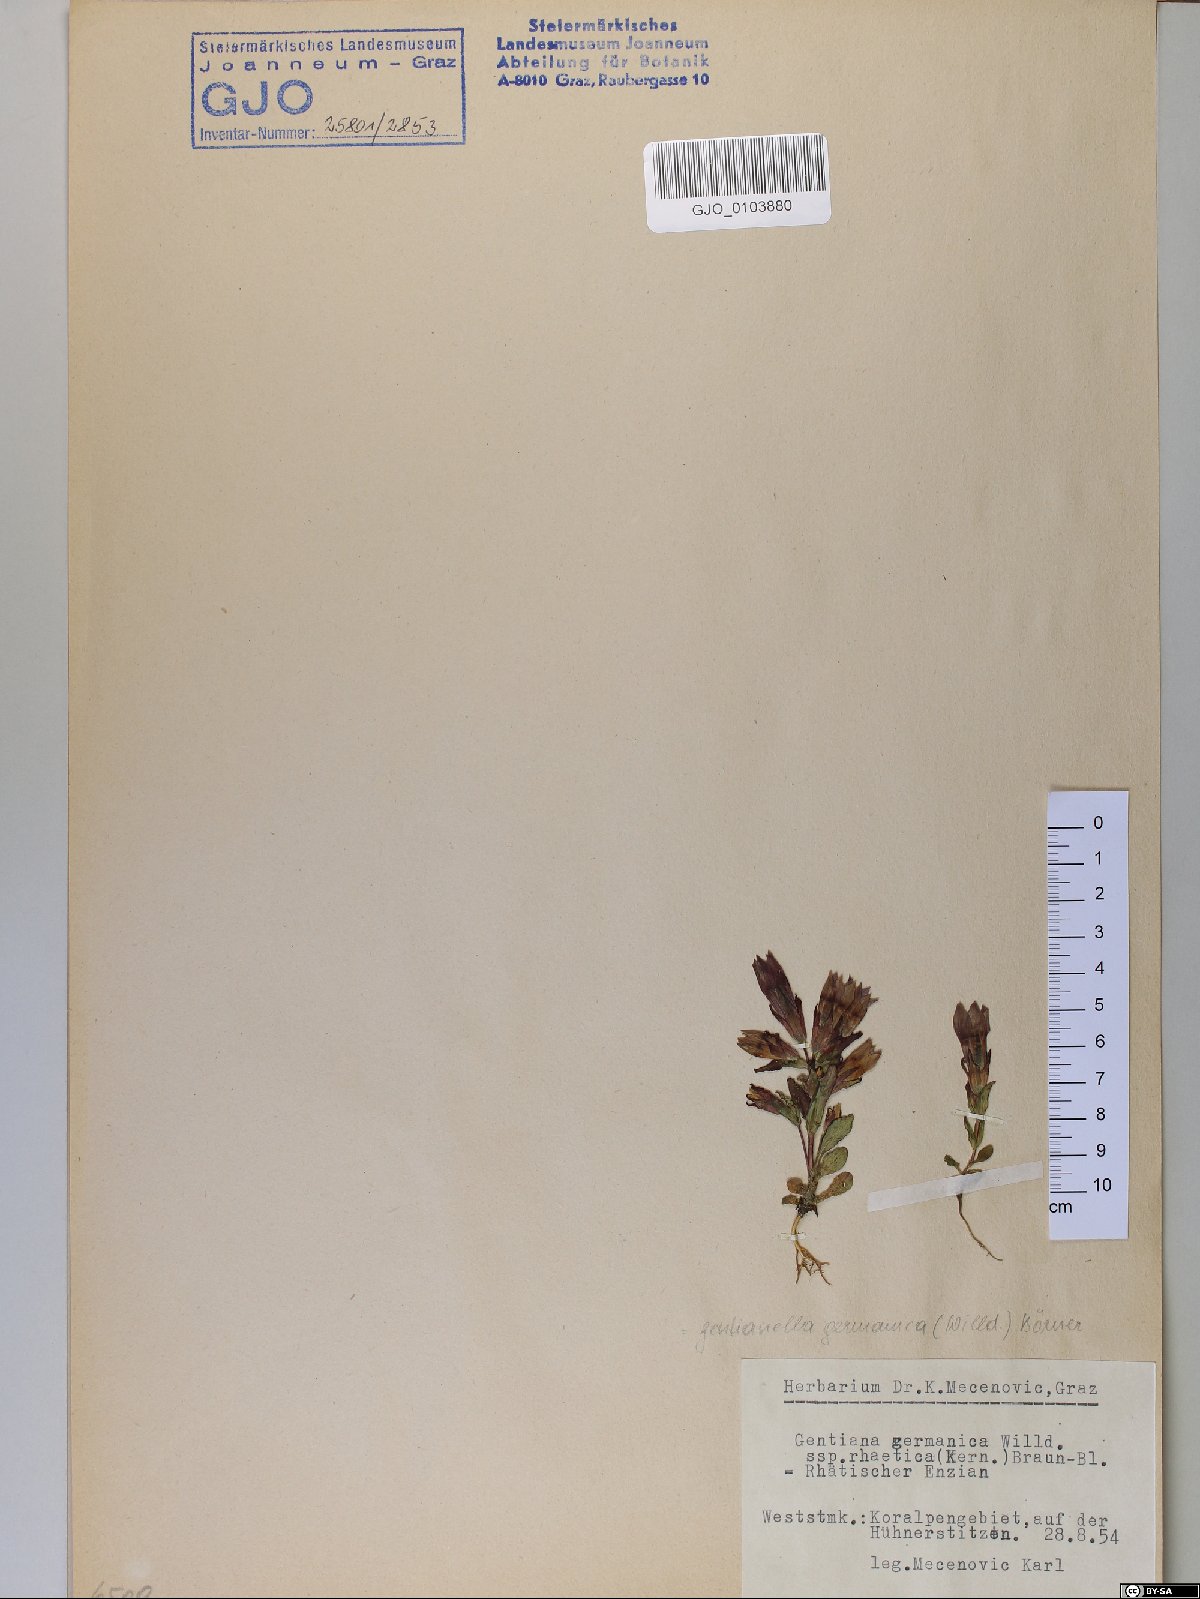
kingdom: Plantae
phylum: Tracheophyta
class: Magnoliopsida
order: Gentianales
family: Gentianaceae
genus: Gentianella
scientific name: Gentianella rhaetica
